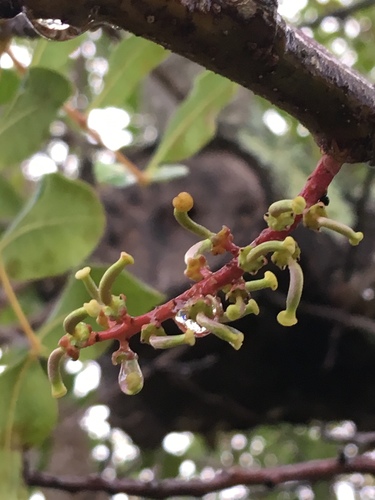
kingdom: Plantae
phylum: Tracheophyta
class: Magnoliopsida
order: Fabales
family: Fabaceae
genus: Ceratonia
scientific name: Ceratonia siliqua
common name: Carob
